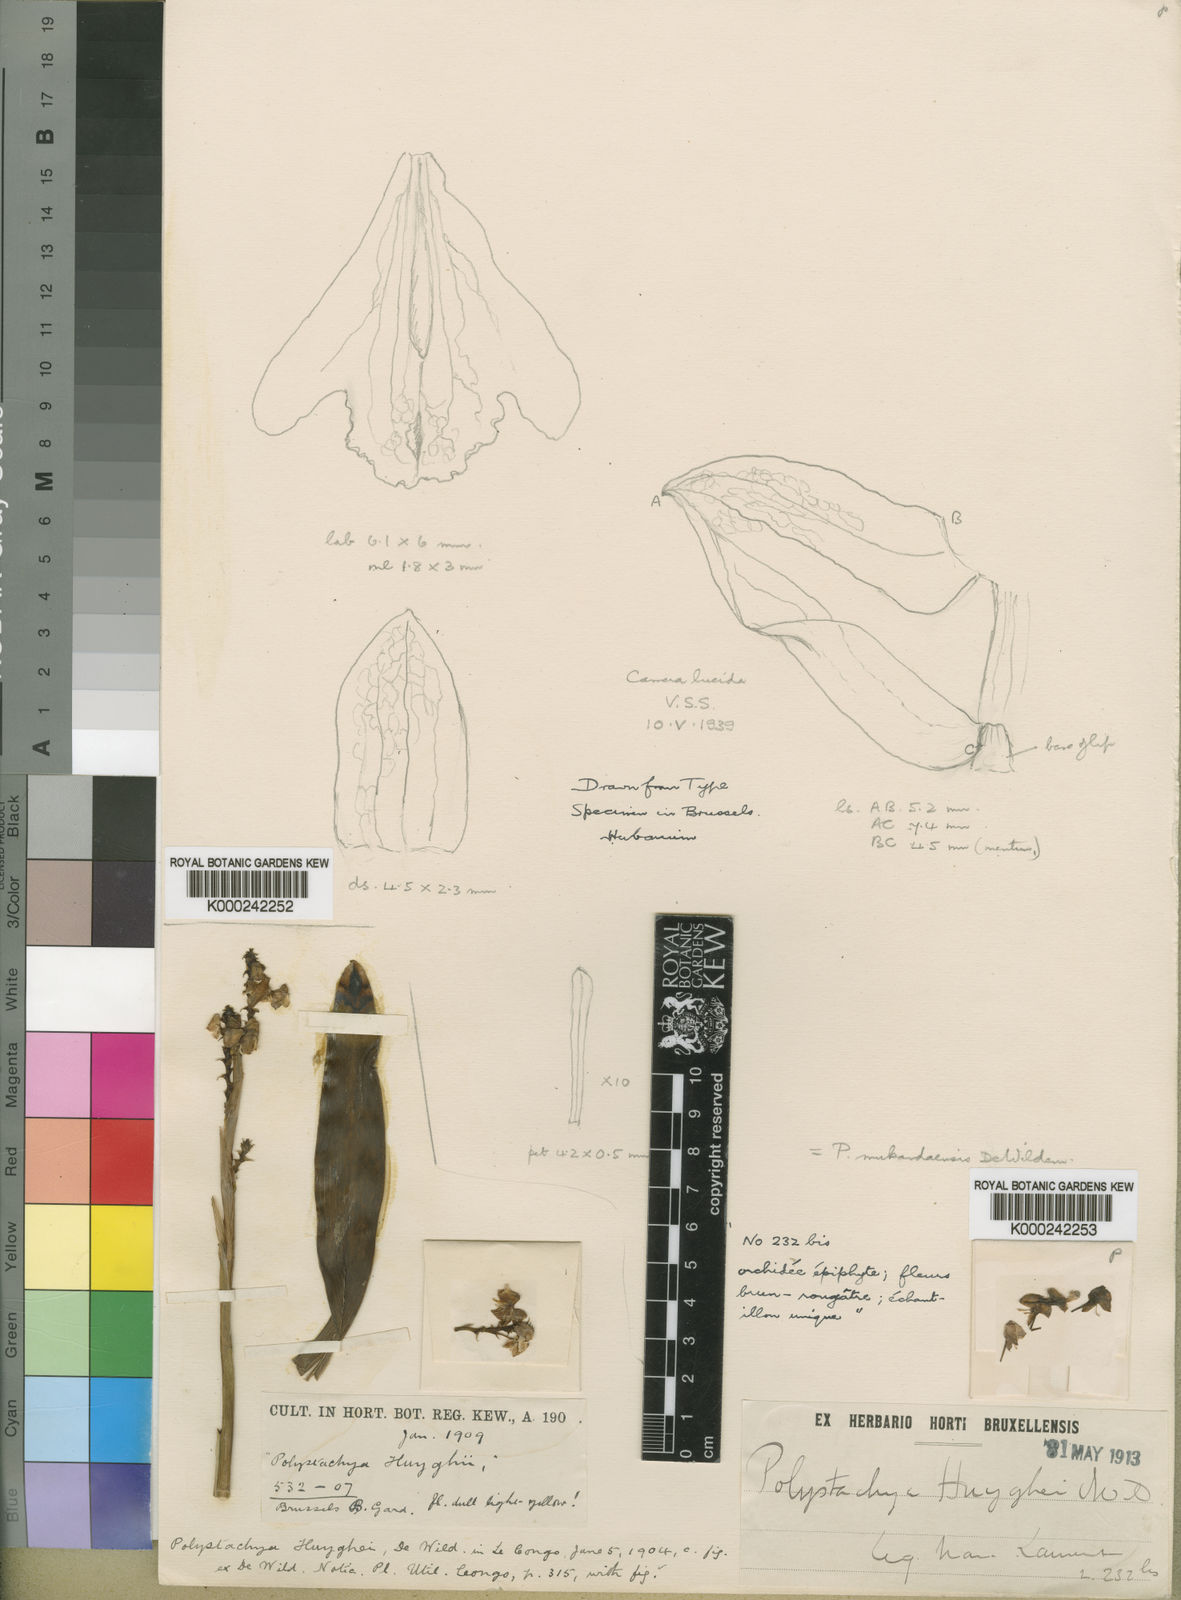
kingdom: Plantae
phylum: Tracheophyta
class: Liliopsida
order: Asparagales
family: Orchidaceae
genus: Polystachya
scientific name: Polystachya mukandaensis
